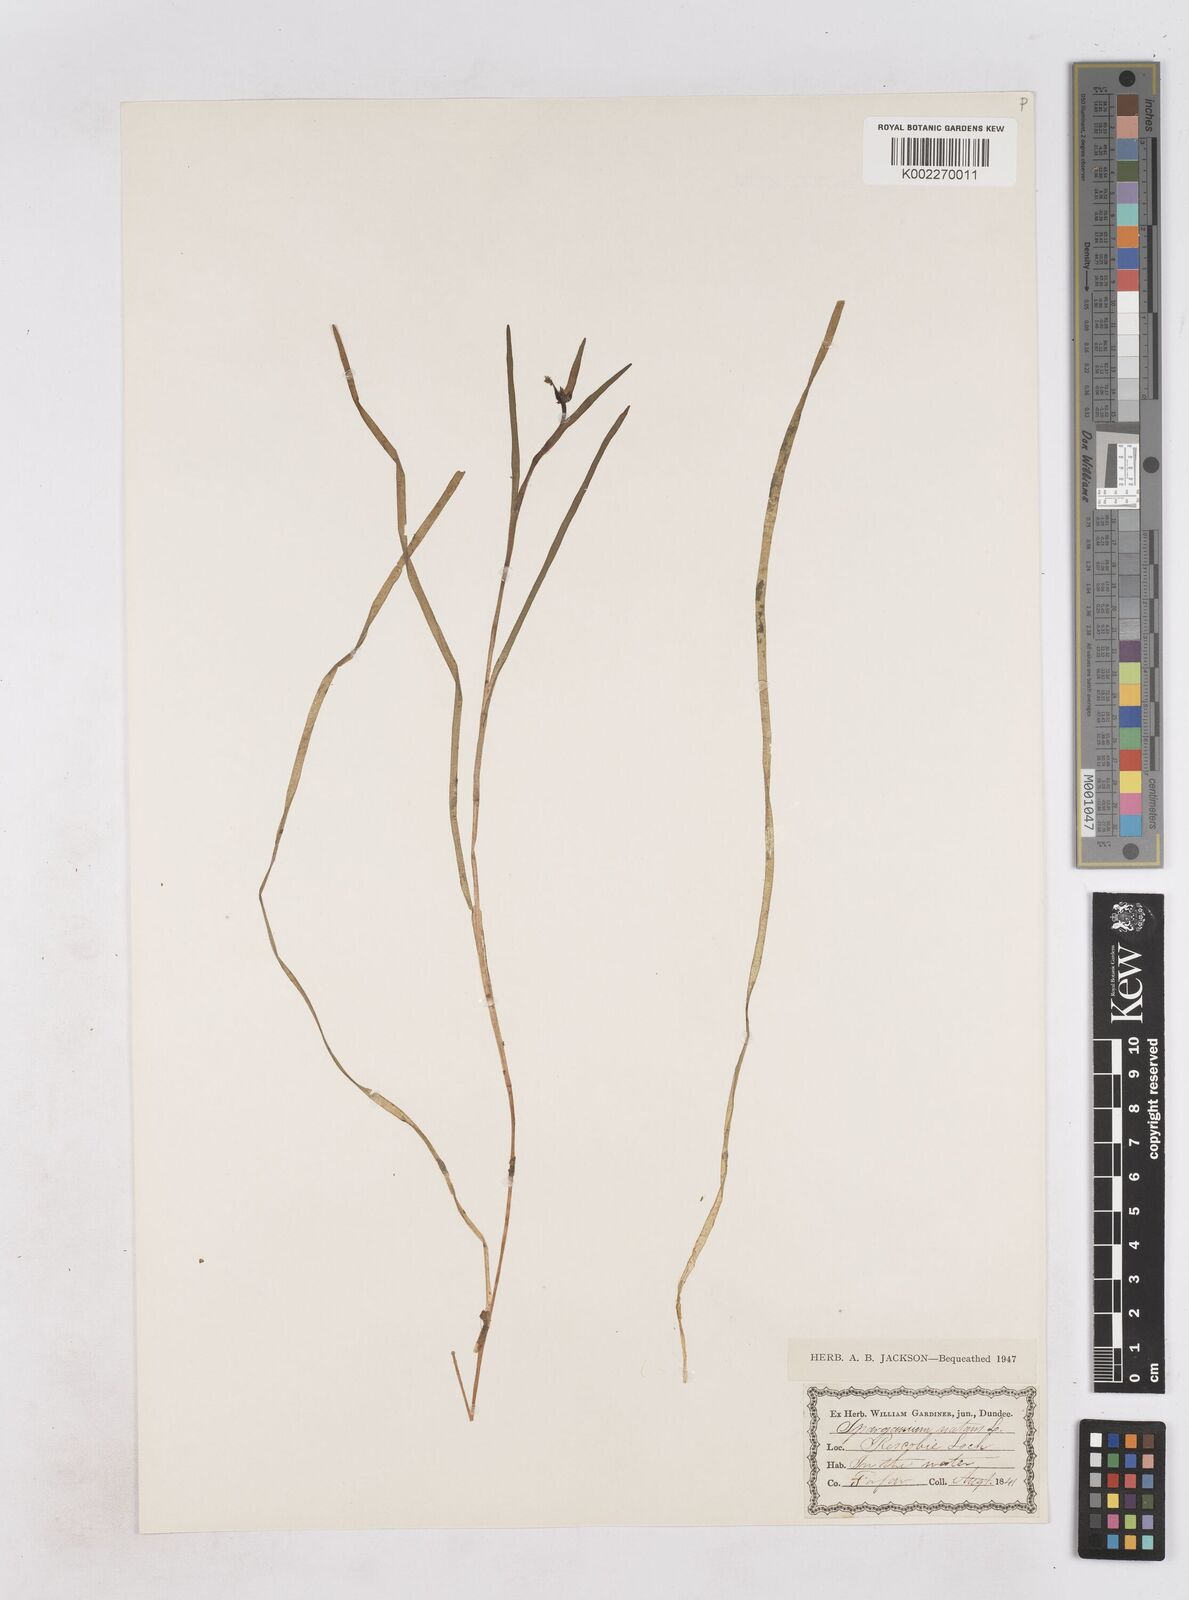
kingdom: Plantae
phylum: Tracheophyta
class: Liliopsida
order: Poales
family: Typhaceae
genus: Sparganium
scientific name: Sparganium gramineum
